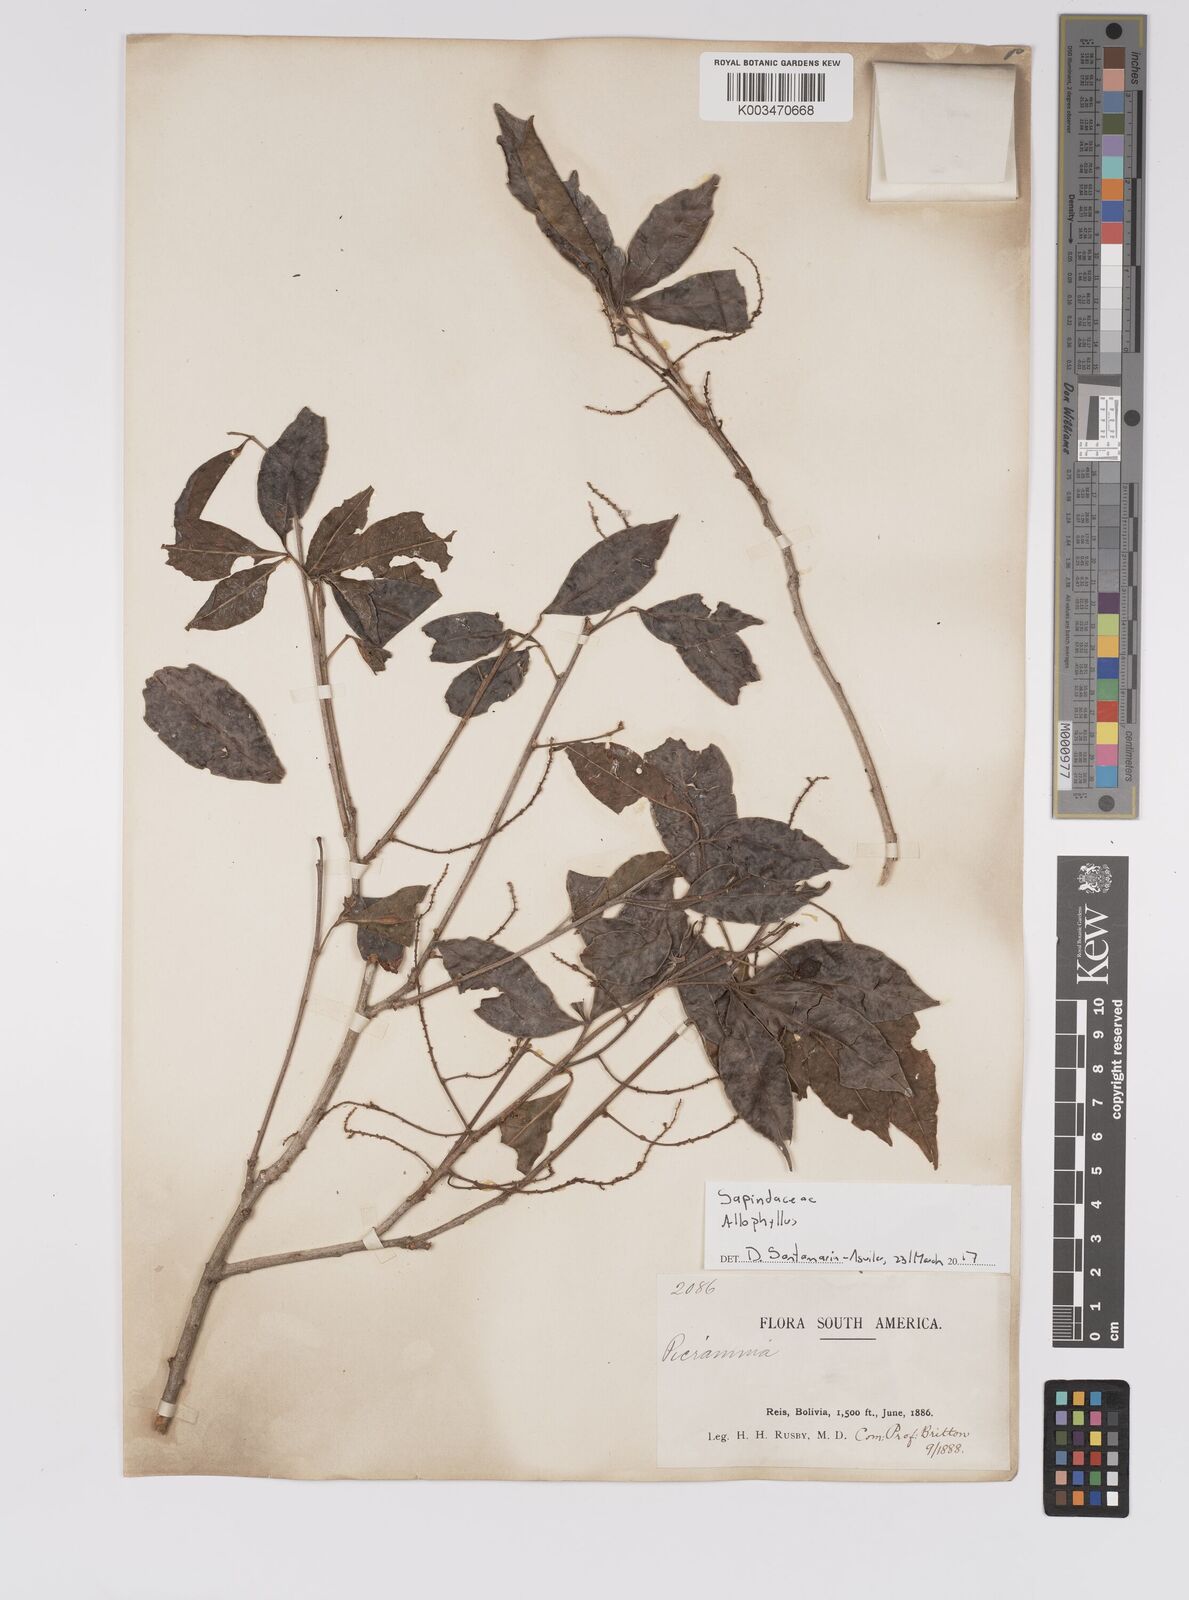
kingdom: Plantae
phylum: Tracheophyta
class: Magnoliopsida
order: Sapindales
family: Sapindaceae
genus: Allophylus
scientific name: Allophylus
